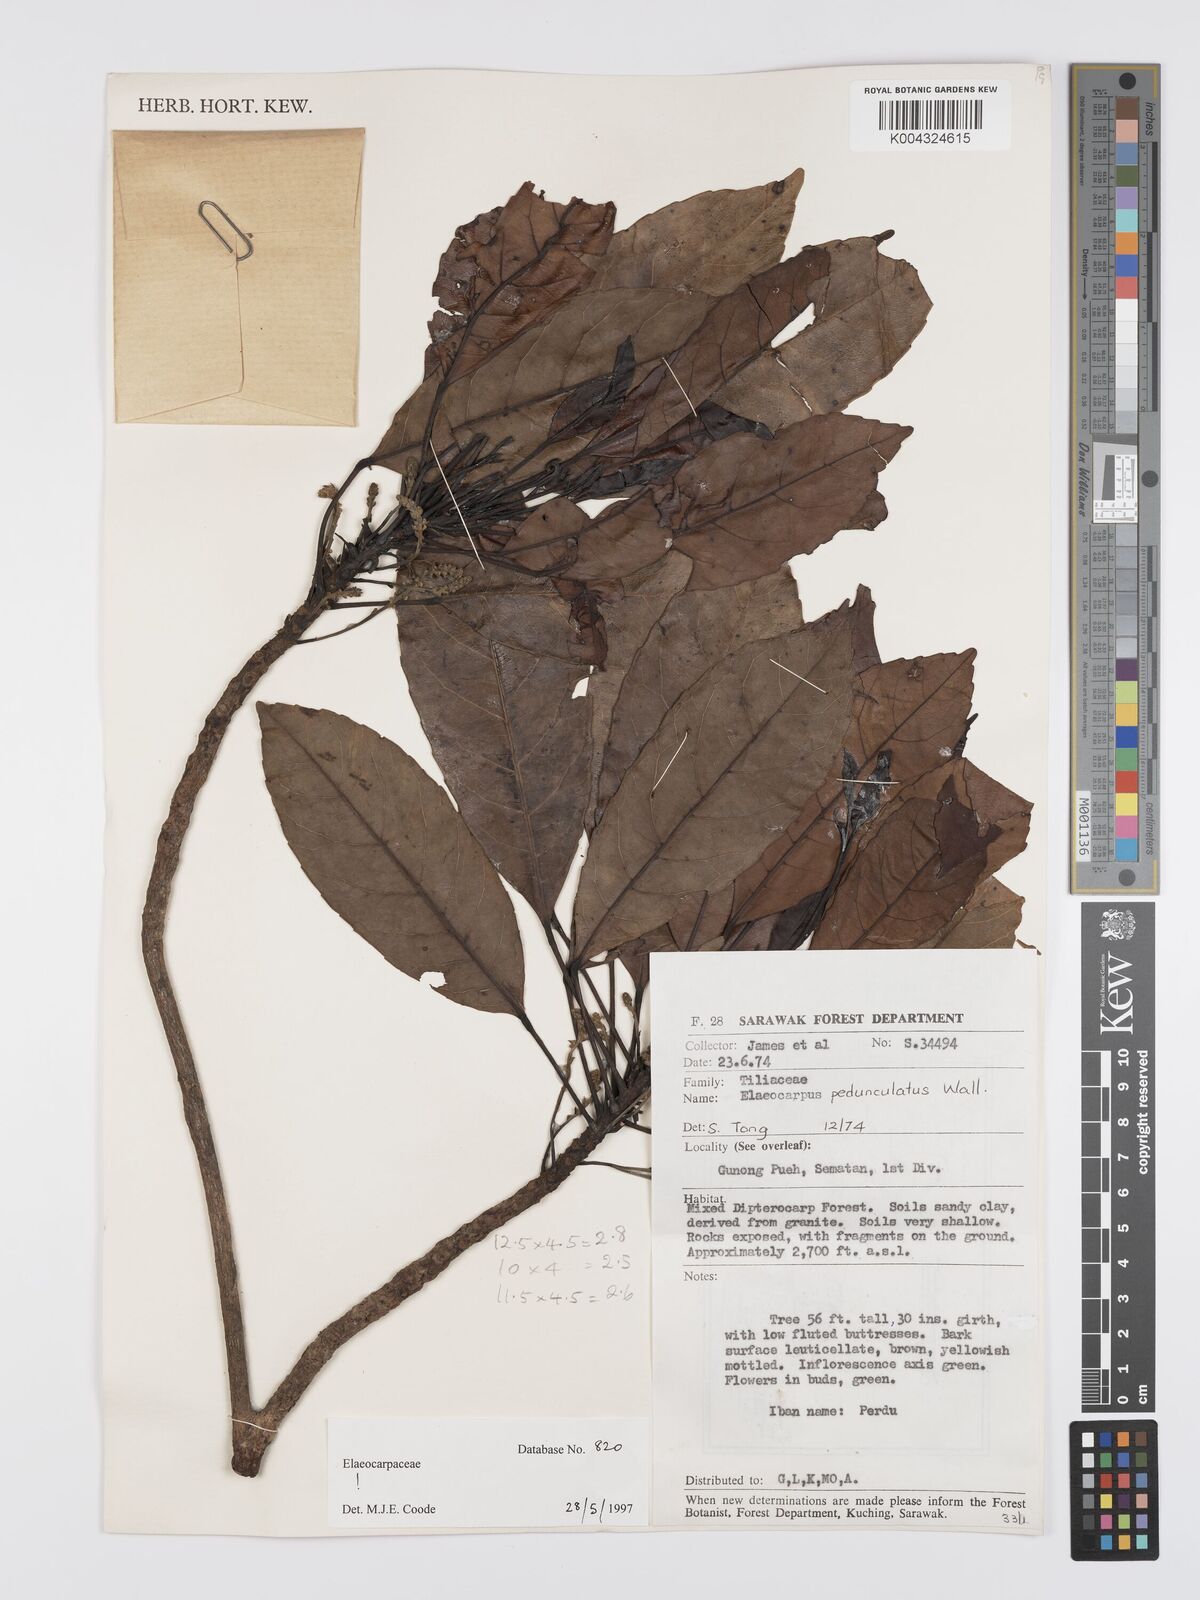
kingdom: Plantae
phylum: Tracheophyta
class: Magnoliopsida
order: Oxalidales
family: Elaeocarpaceae
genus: Elaeocarpus
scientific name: Elaeocarpus pedunculatus
